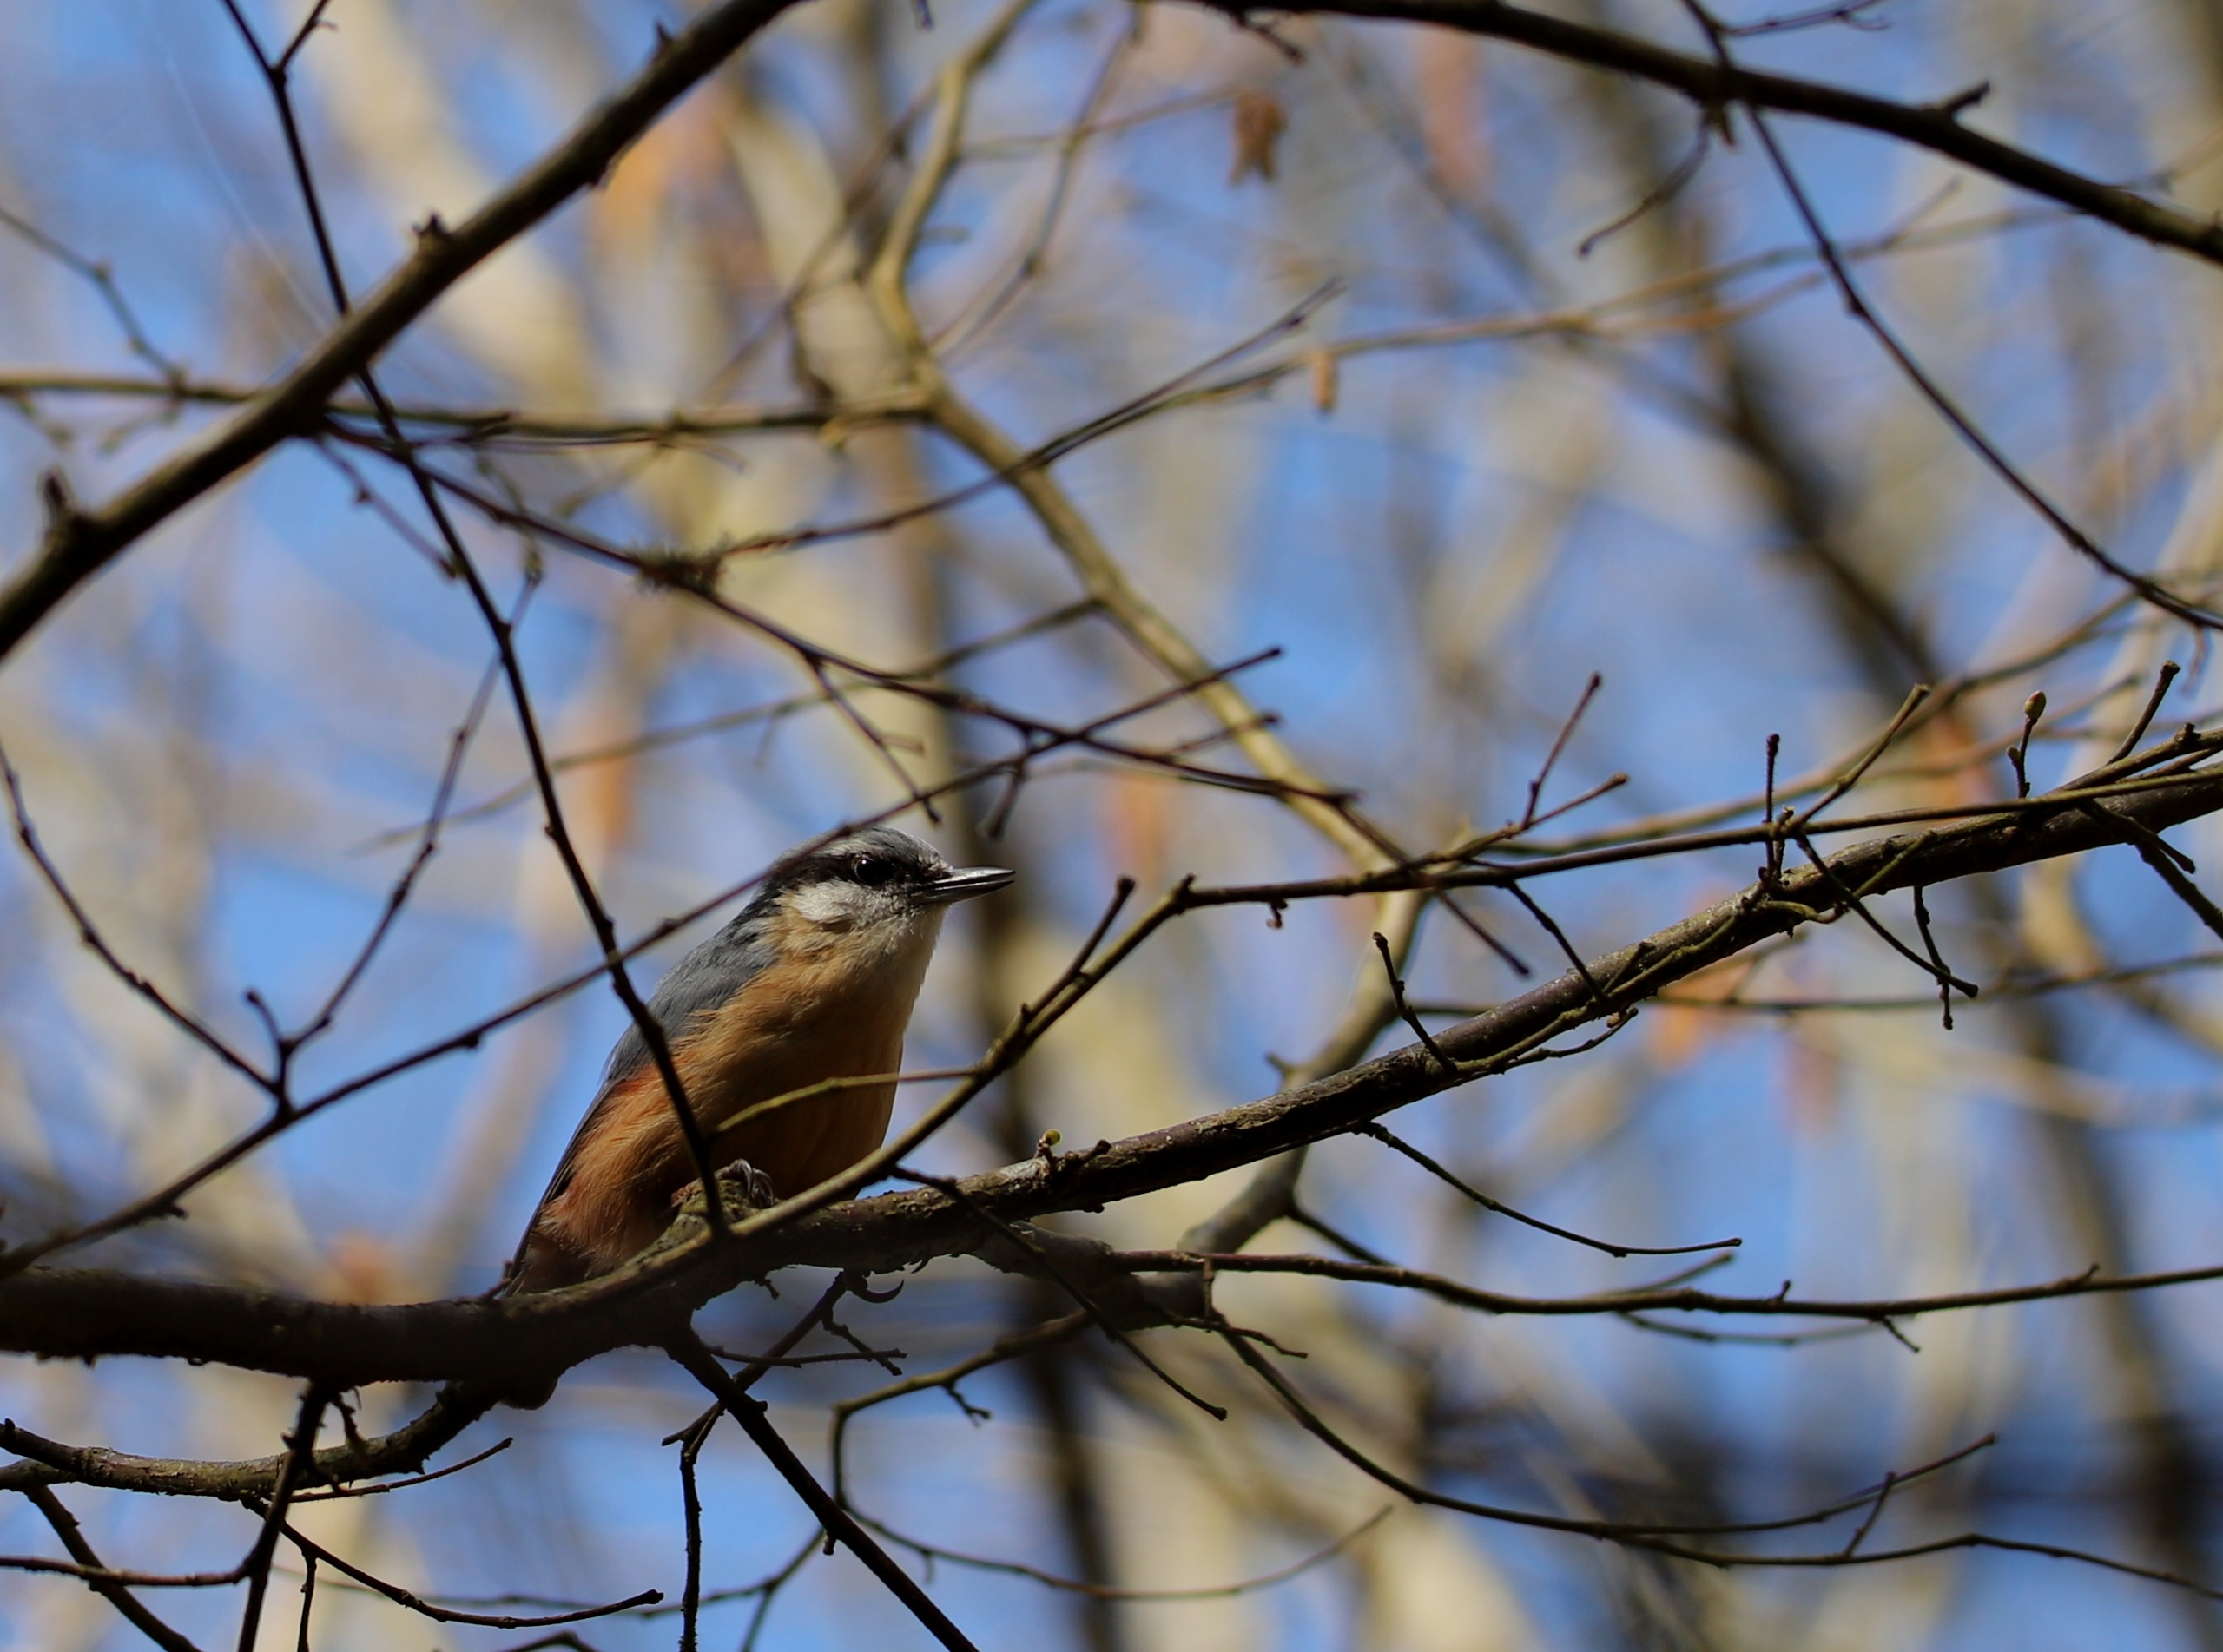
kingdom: Animalia
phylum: Chordata
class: Aves
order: Passeriformes
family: Sittidae
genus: Sitta
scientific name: Sitta europaea
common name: Spætmejse
